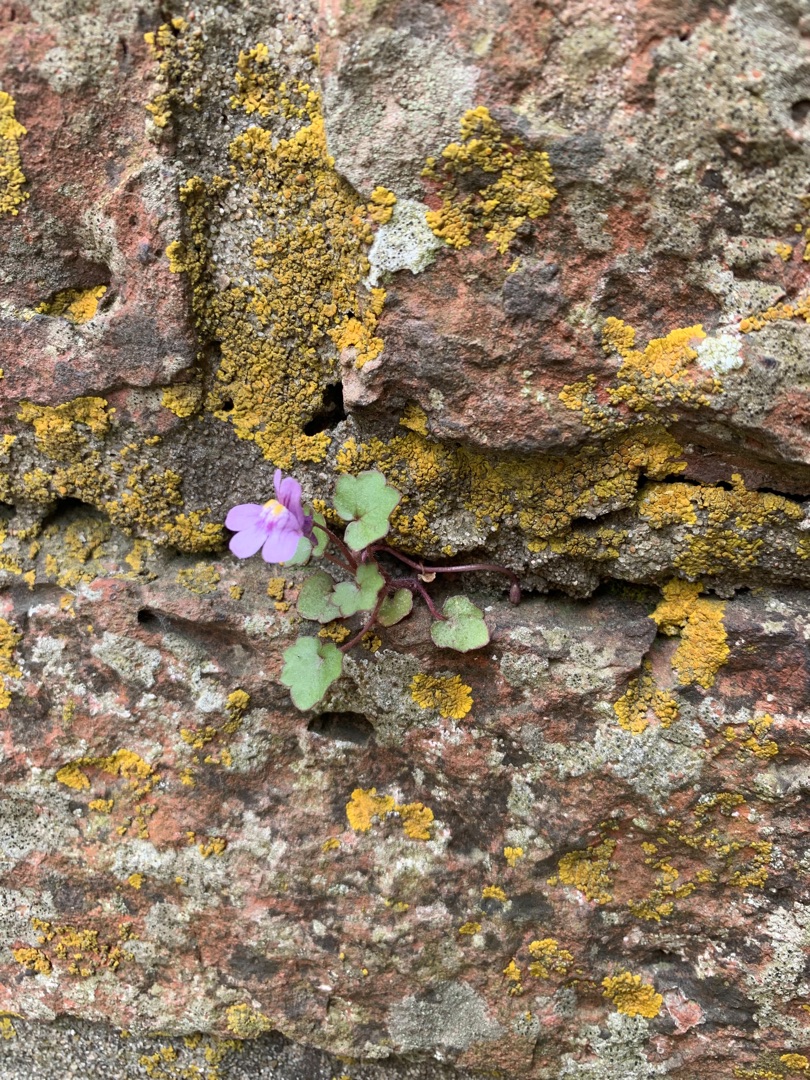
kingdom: Plantae
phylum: Tracheophyta
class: Magnoliopsida
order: Lamiales
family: Plantaginaceae
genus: Cymbalaria
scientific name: Cymbalaria muralis
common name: Vedbend-torskemund
